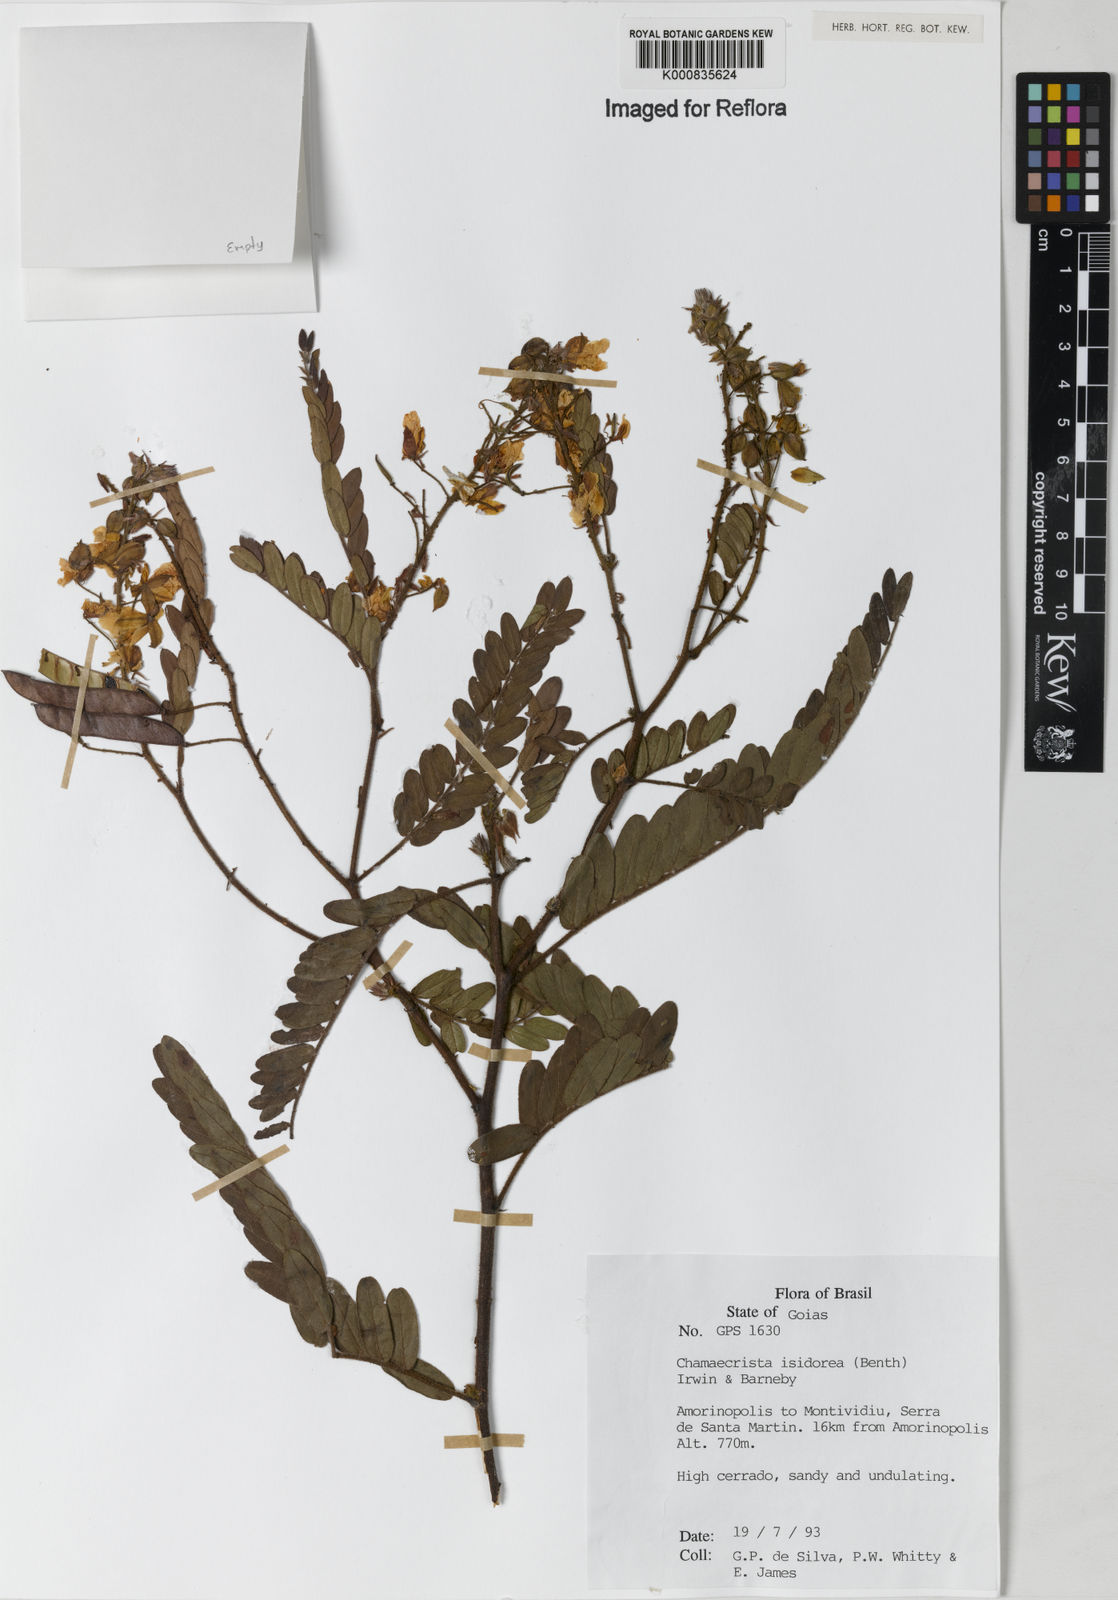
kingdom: Plantae
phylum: Tracheophyta
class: Magnoliopsida
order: Fabales
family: Fabaceae
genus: Chamaecrista
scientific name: Chamaecrista isidorea
